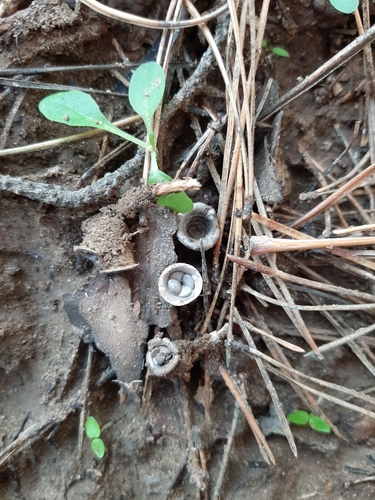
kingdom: Fungi
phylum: Basidiomycota
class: Agaricomycetes
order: Agaricales
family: Agaricaceae
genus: Cyathus
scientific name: Cyathus olla
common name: Field bird's nest
